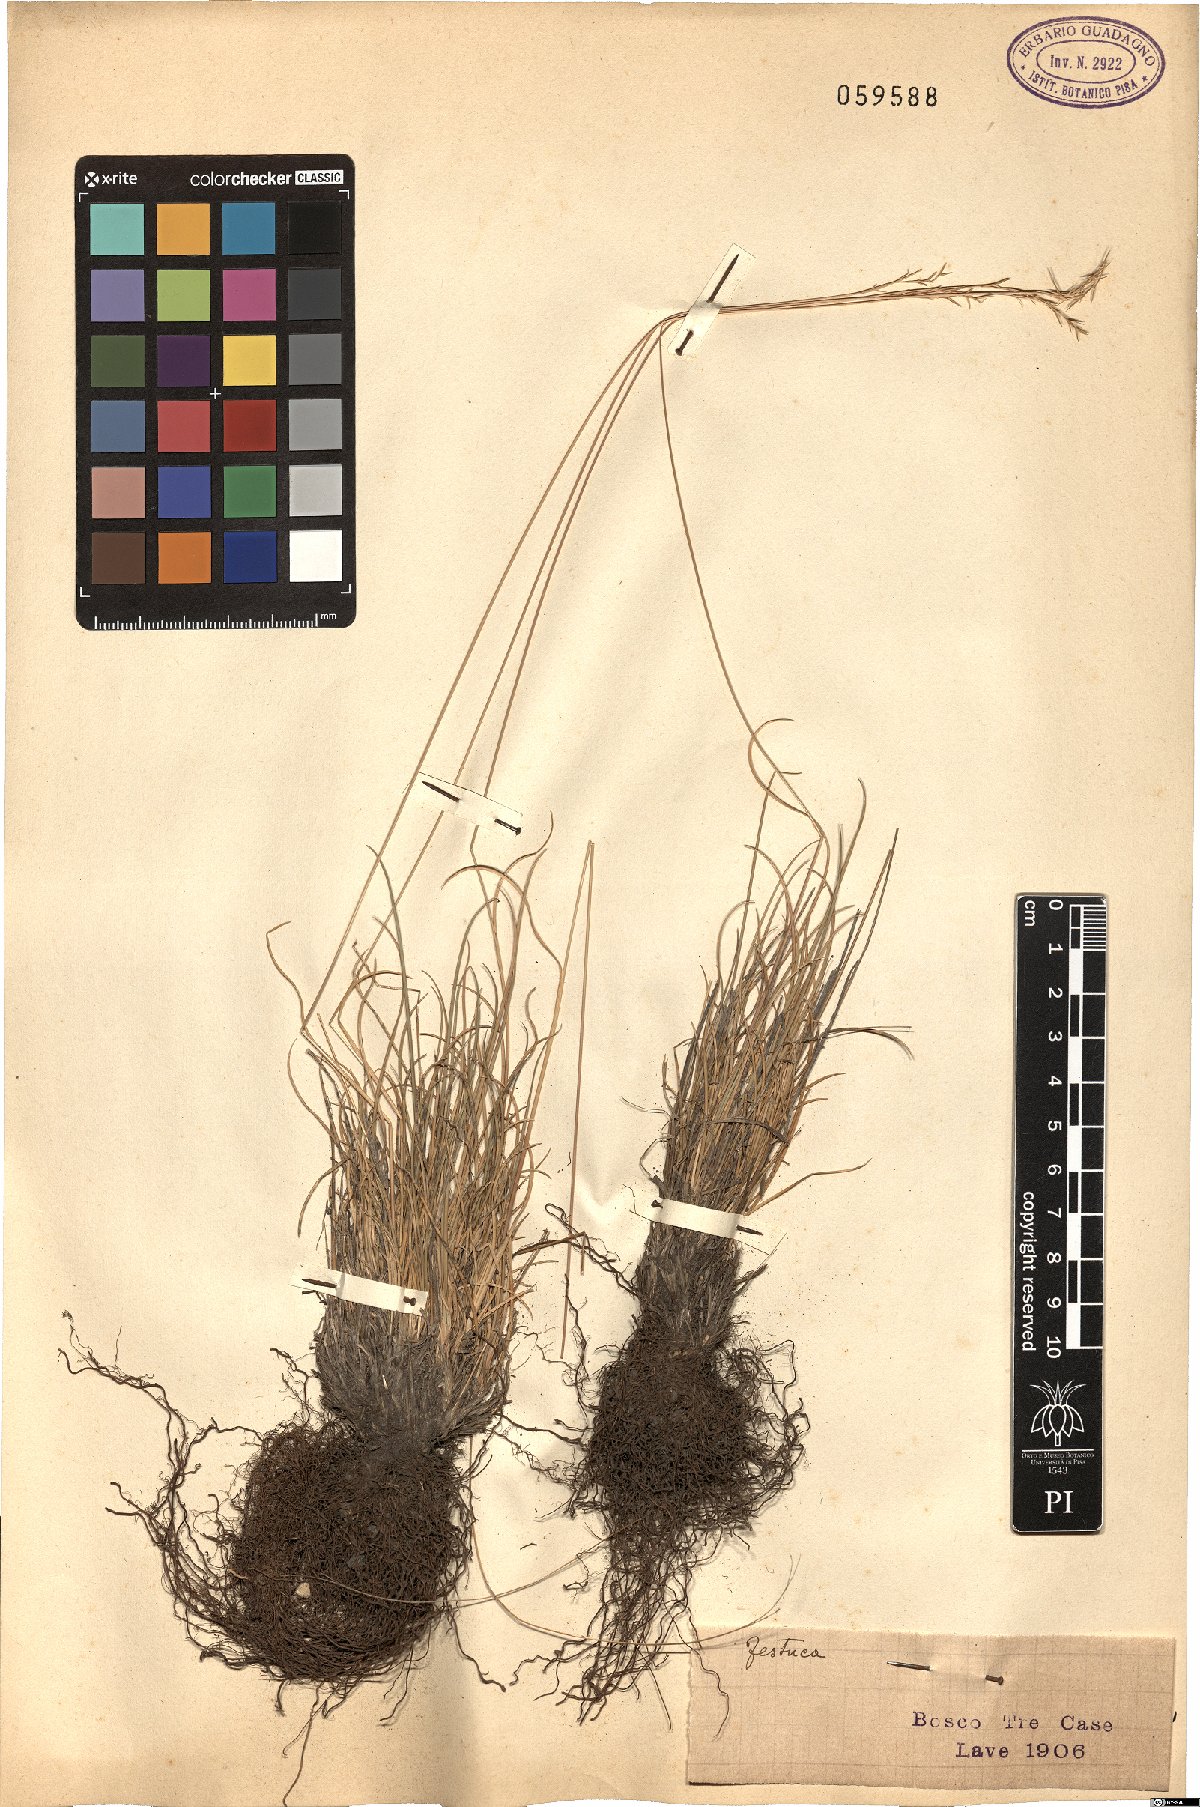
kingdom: Plantae
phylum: Tracheophyta
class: Liliopsida
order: Poales
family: Poaceae
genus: Festuca
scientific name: Festuca
